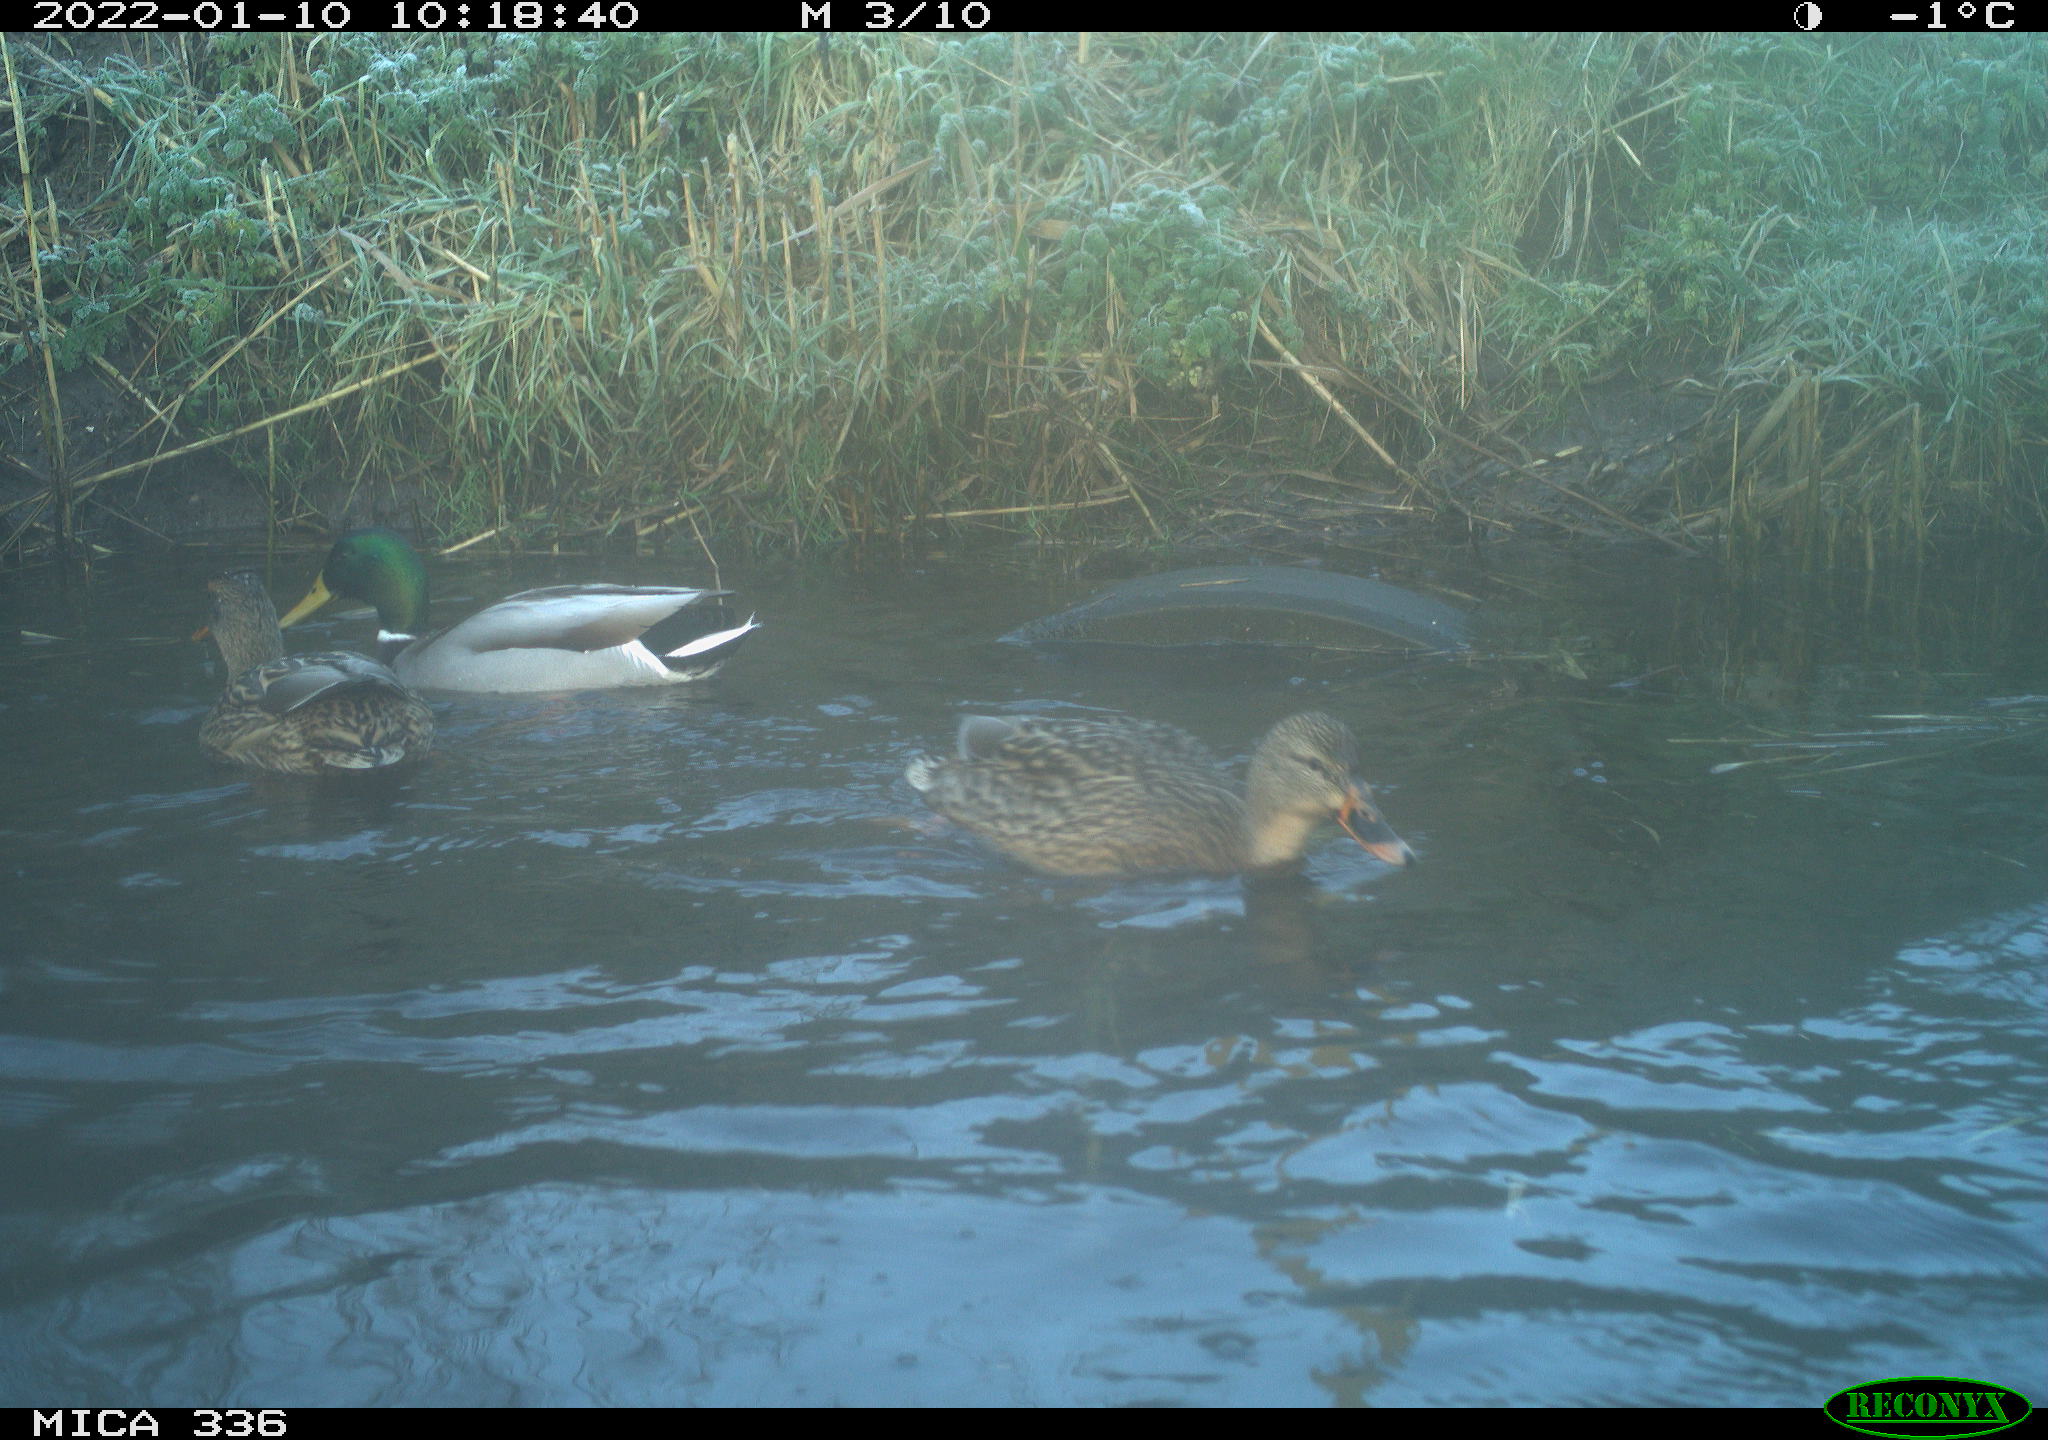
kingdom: Animalia
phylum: Chordata
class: Aves
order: Anseriformes
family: Anatidae
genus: Anas
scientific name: Anas platyrhynchos
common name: Mallard
